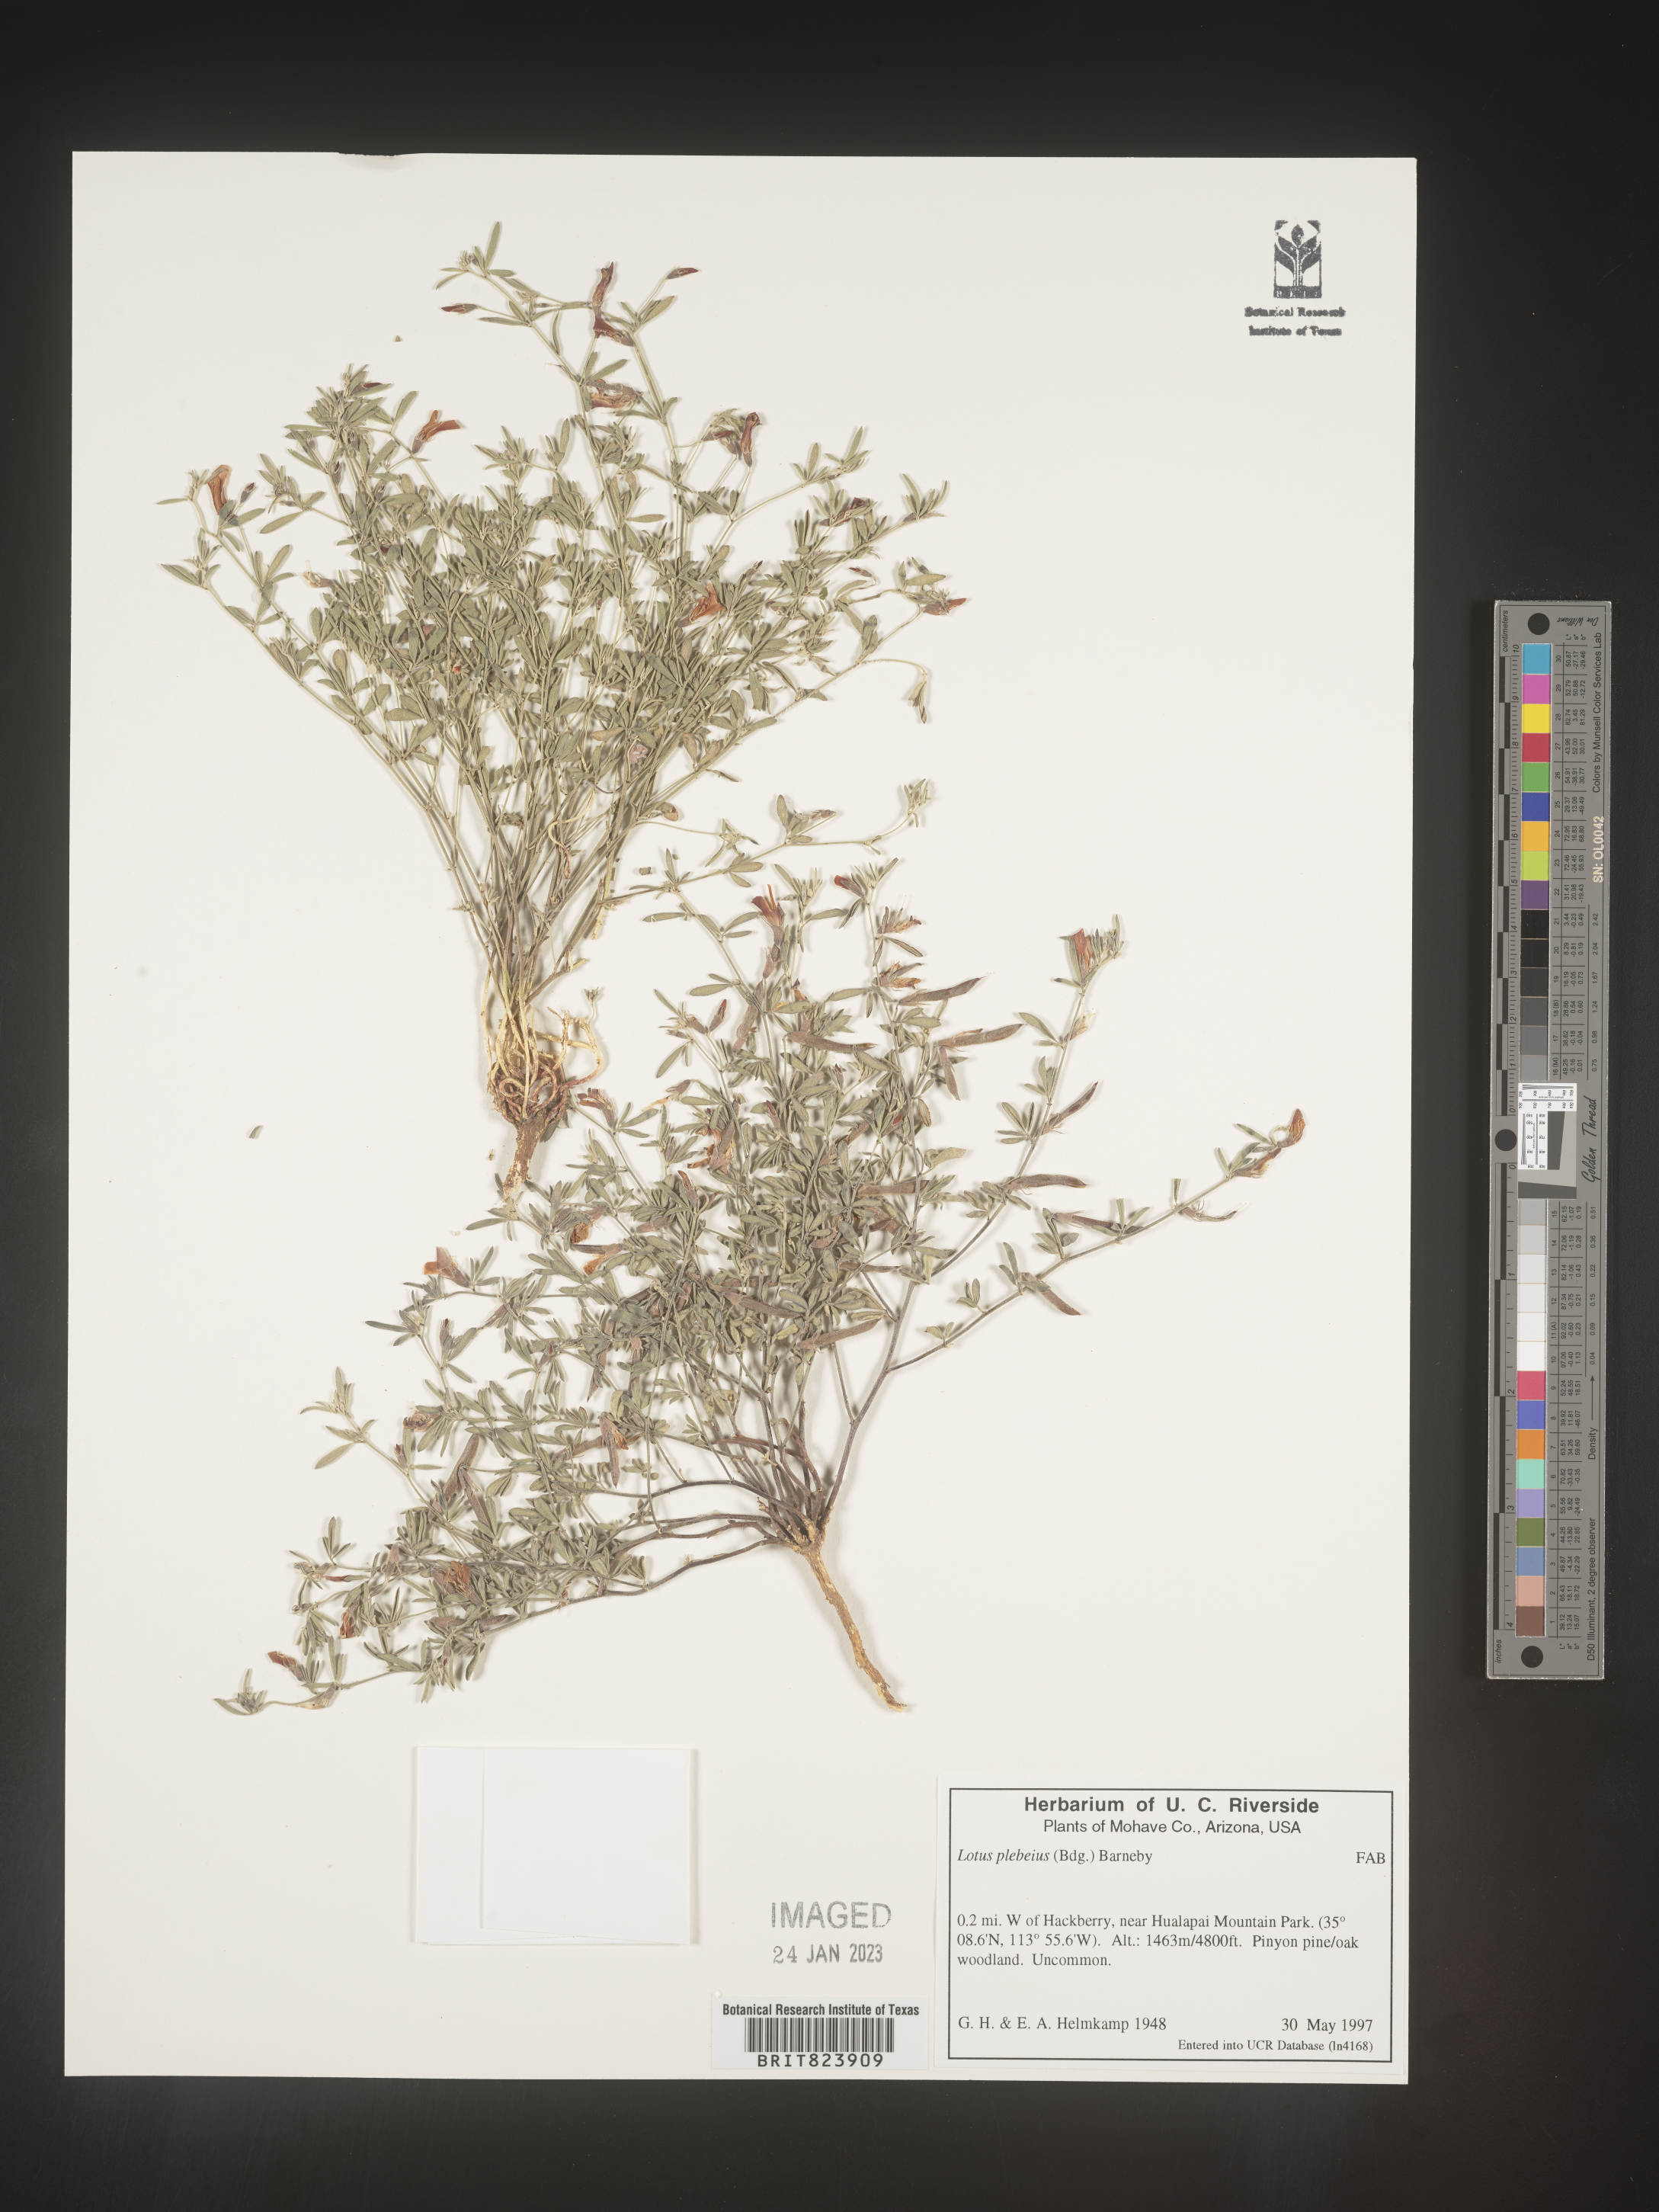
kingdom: Plantae
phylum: Tracheophyta
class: Magnoliopsida
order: Fabales
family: Fabaceae
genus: Lotus
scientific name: Lotus
